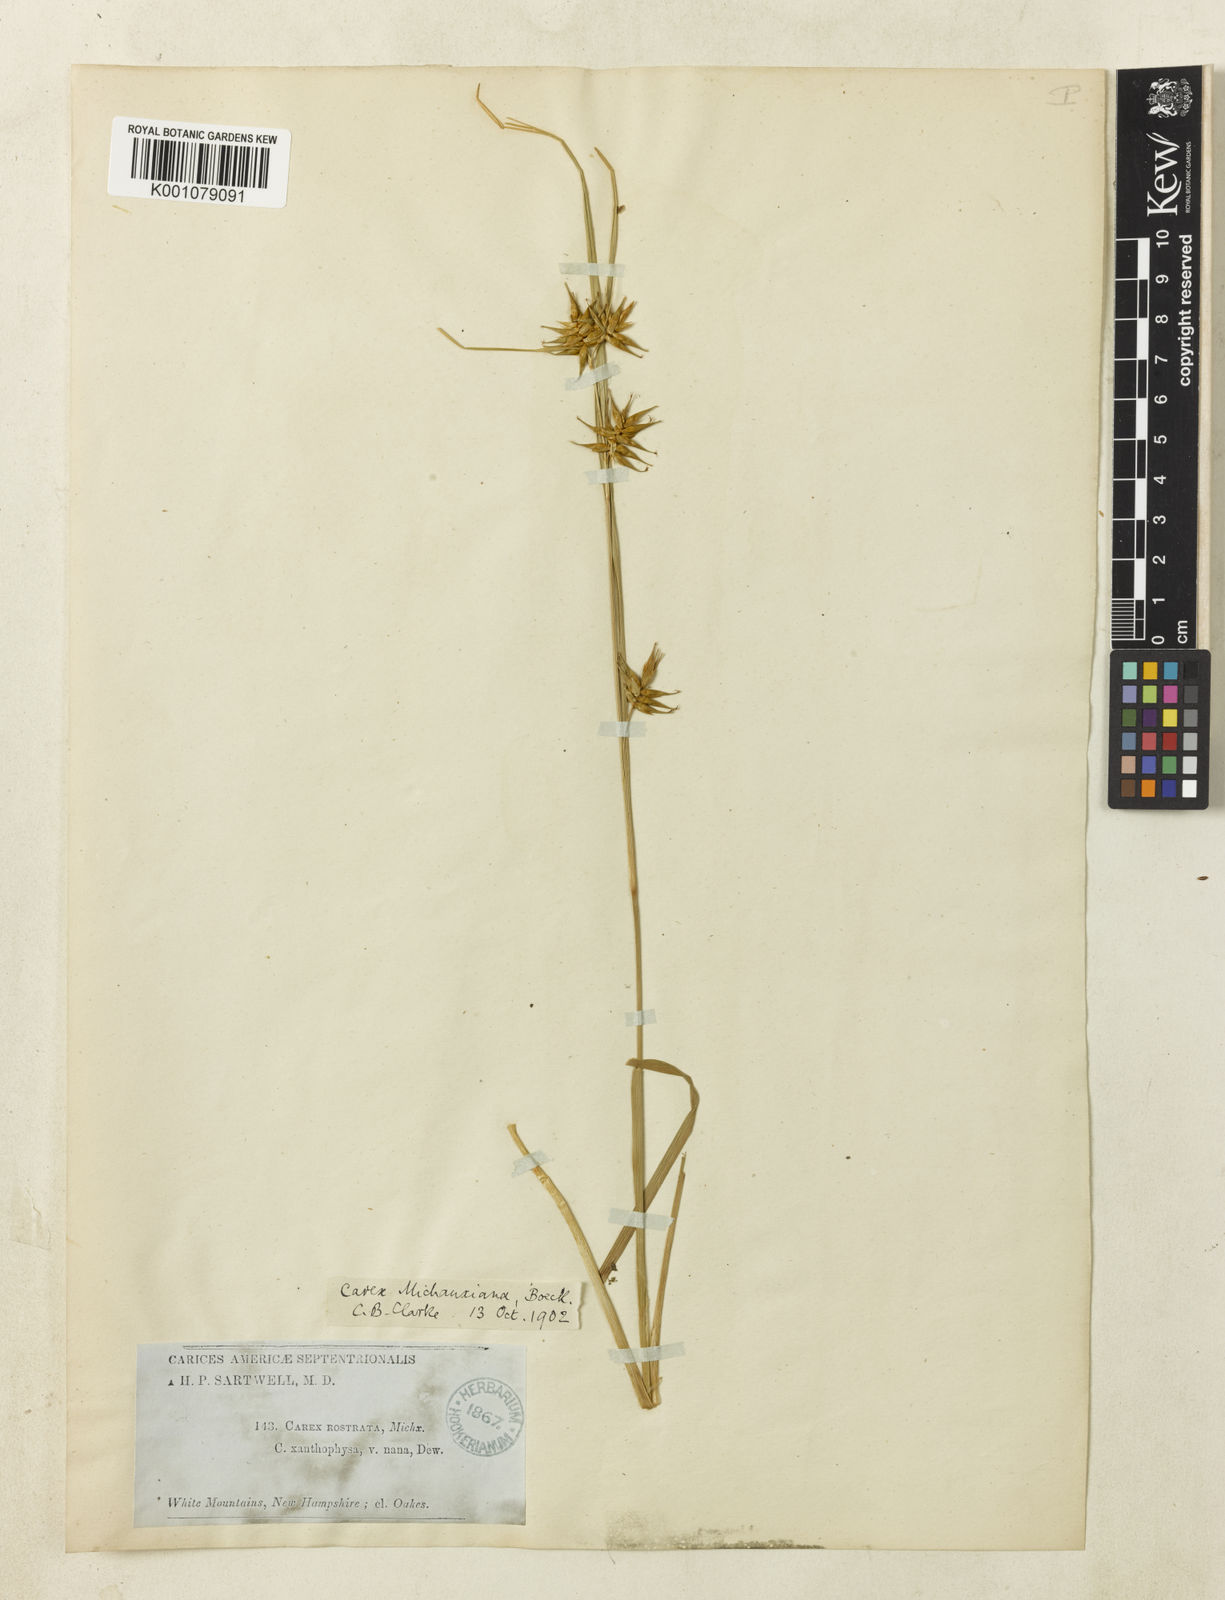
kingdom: Plantae
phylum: Tracheophyta
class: Liliopsida
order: Poales
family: Cyperaceae
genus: Carex
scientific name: Carex michauxiana
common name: Michaux's sedge
